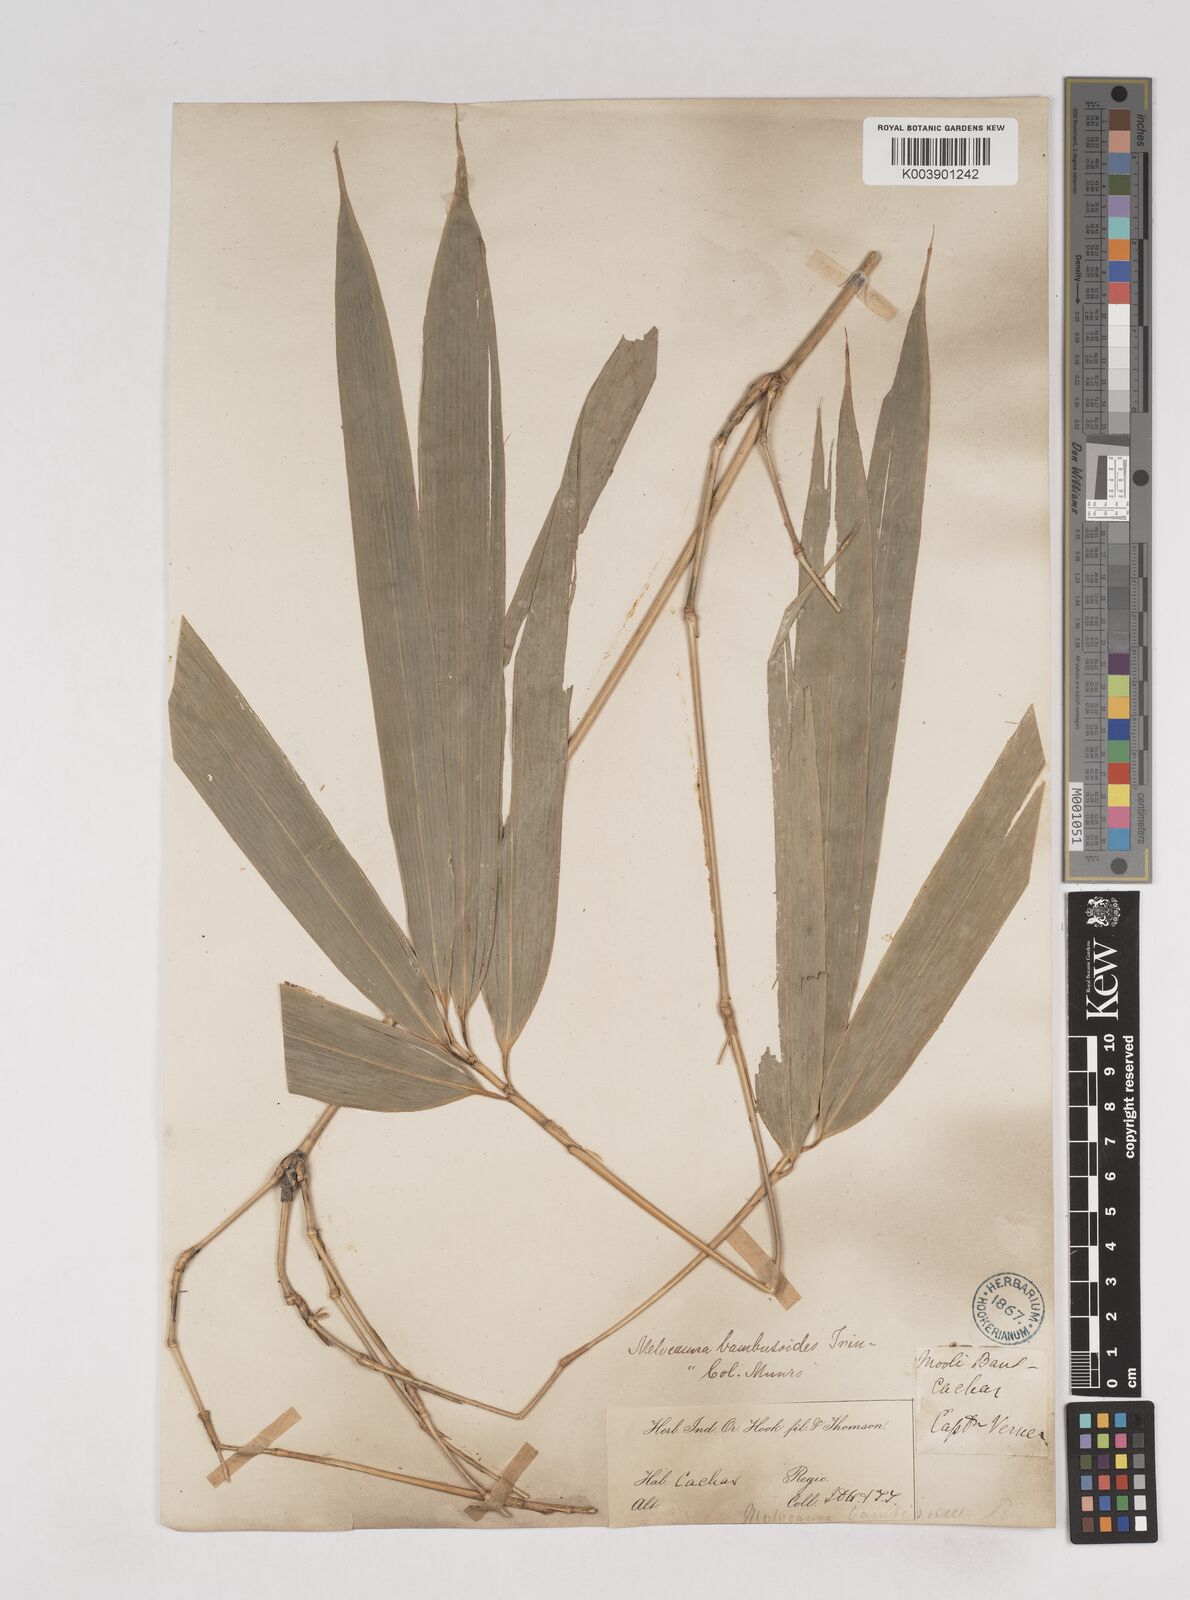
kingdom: Plantae
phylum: Tracheophyta
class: Liliopsida
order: Poales
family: Poaceae
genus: Melocanna
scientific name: Melocanna baccifera
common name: Berry bamboo
